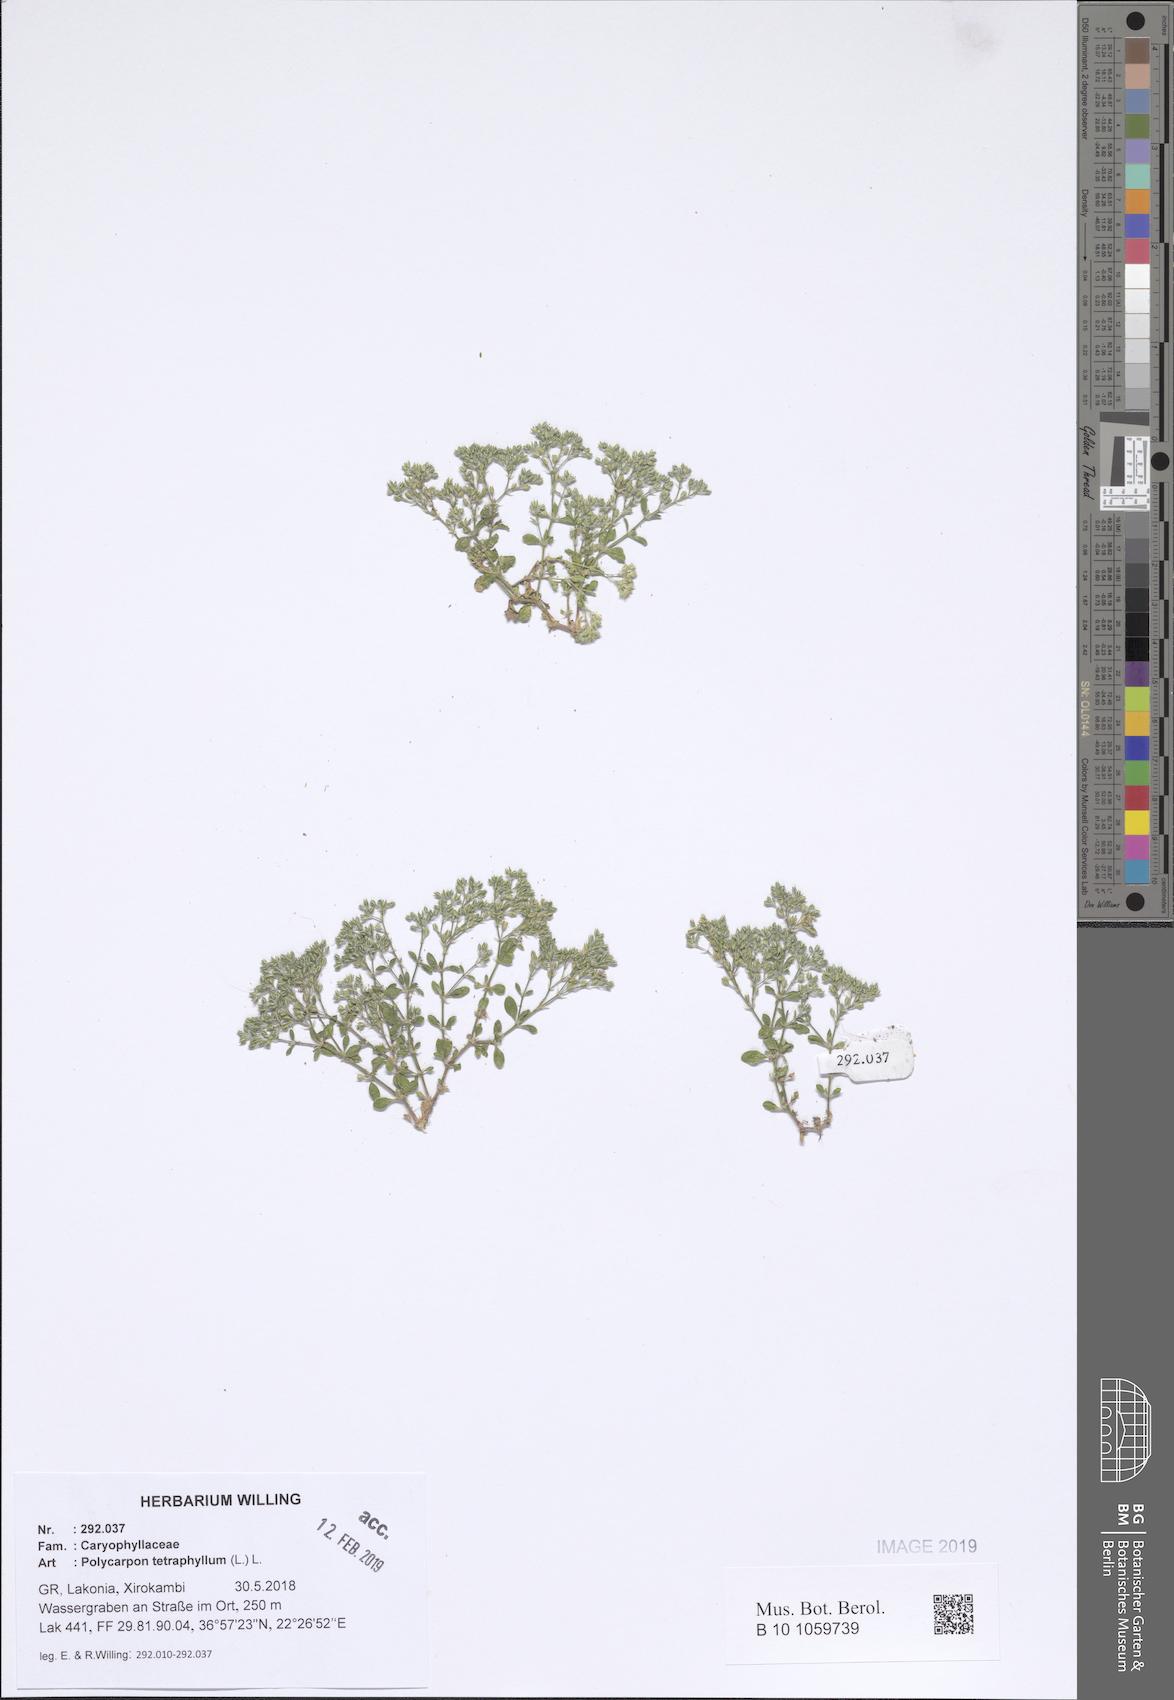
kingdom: Plantae
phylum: Tracheophyta
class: Magnoliopsida
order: Caryophyllales
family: Caryophyllaceae
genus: Polycarpon
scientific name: Polycarpon tetraphyllum
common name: Four-leaved all-seed
